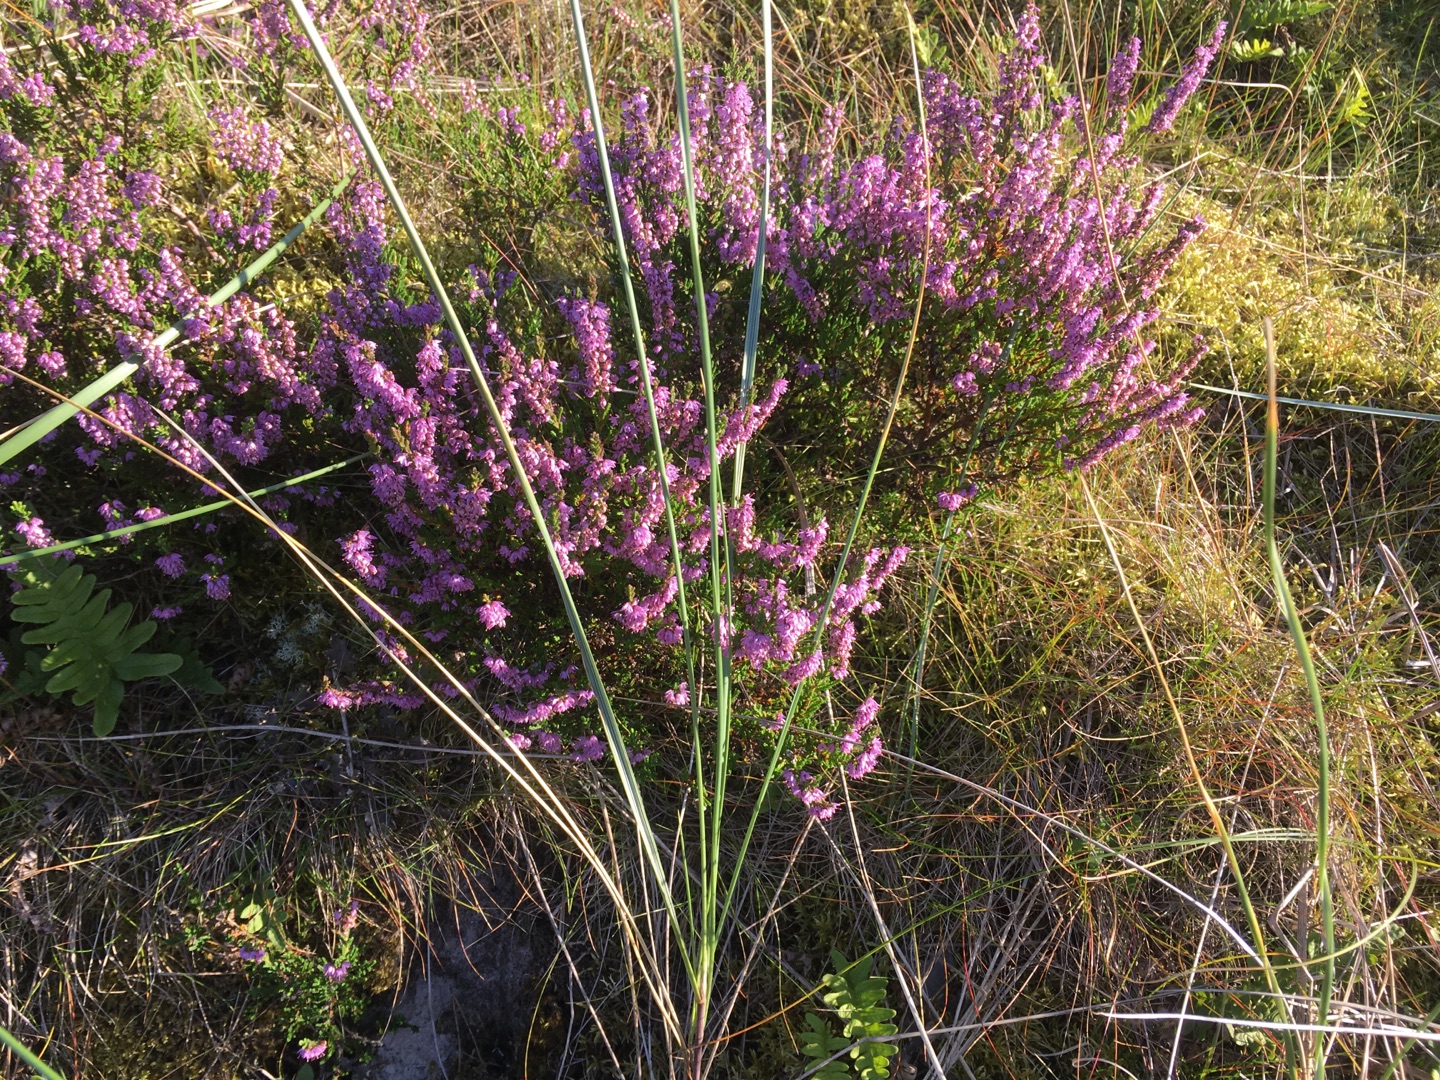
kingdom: Plantae
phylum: Tracheophyta
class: Magnoliopsida
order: Ericales
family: Ericaceae
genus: Calluna
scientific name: Calluna vulgaris
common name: Hedelyng
